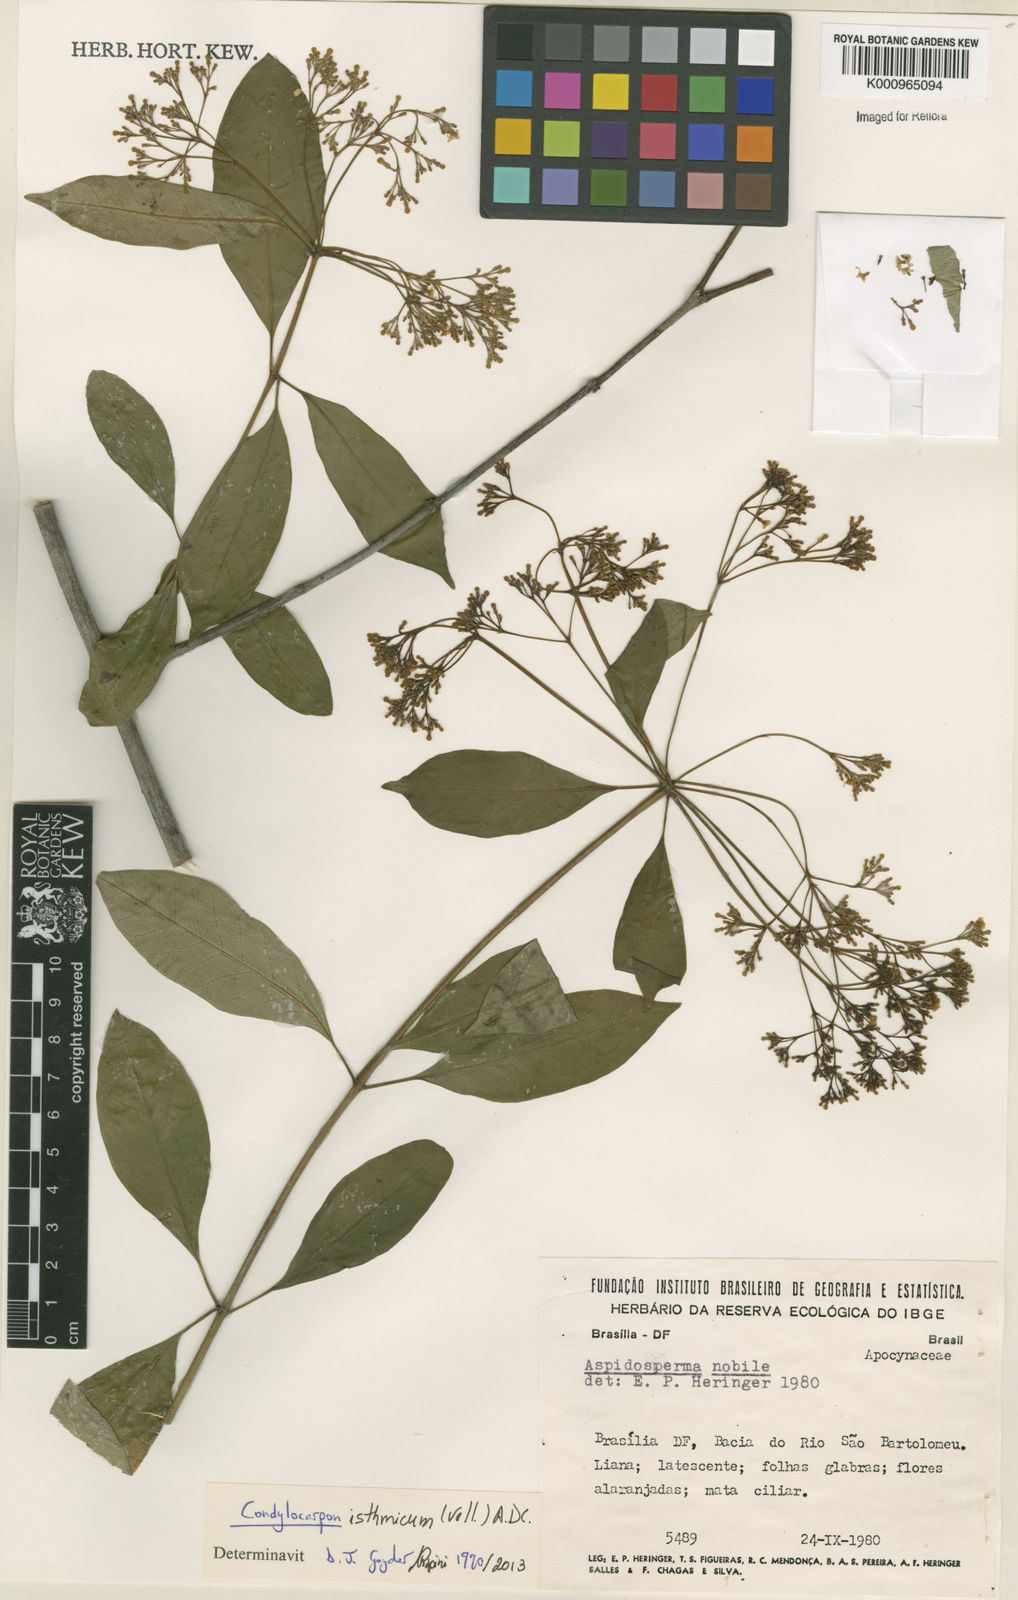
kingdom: Plantae
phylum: Tracheophyta
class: Magnoliopsida
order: Gentianales
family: Apocynaceae
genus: Condylocarpon
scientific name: Condylocarpon isthmicum
